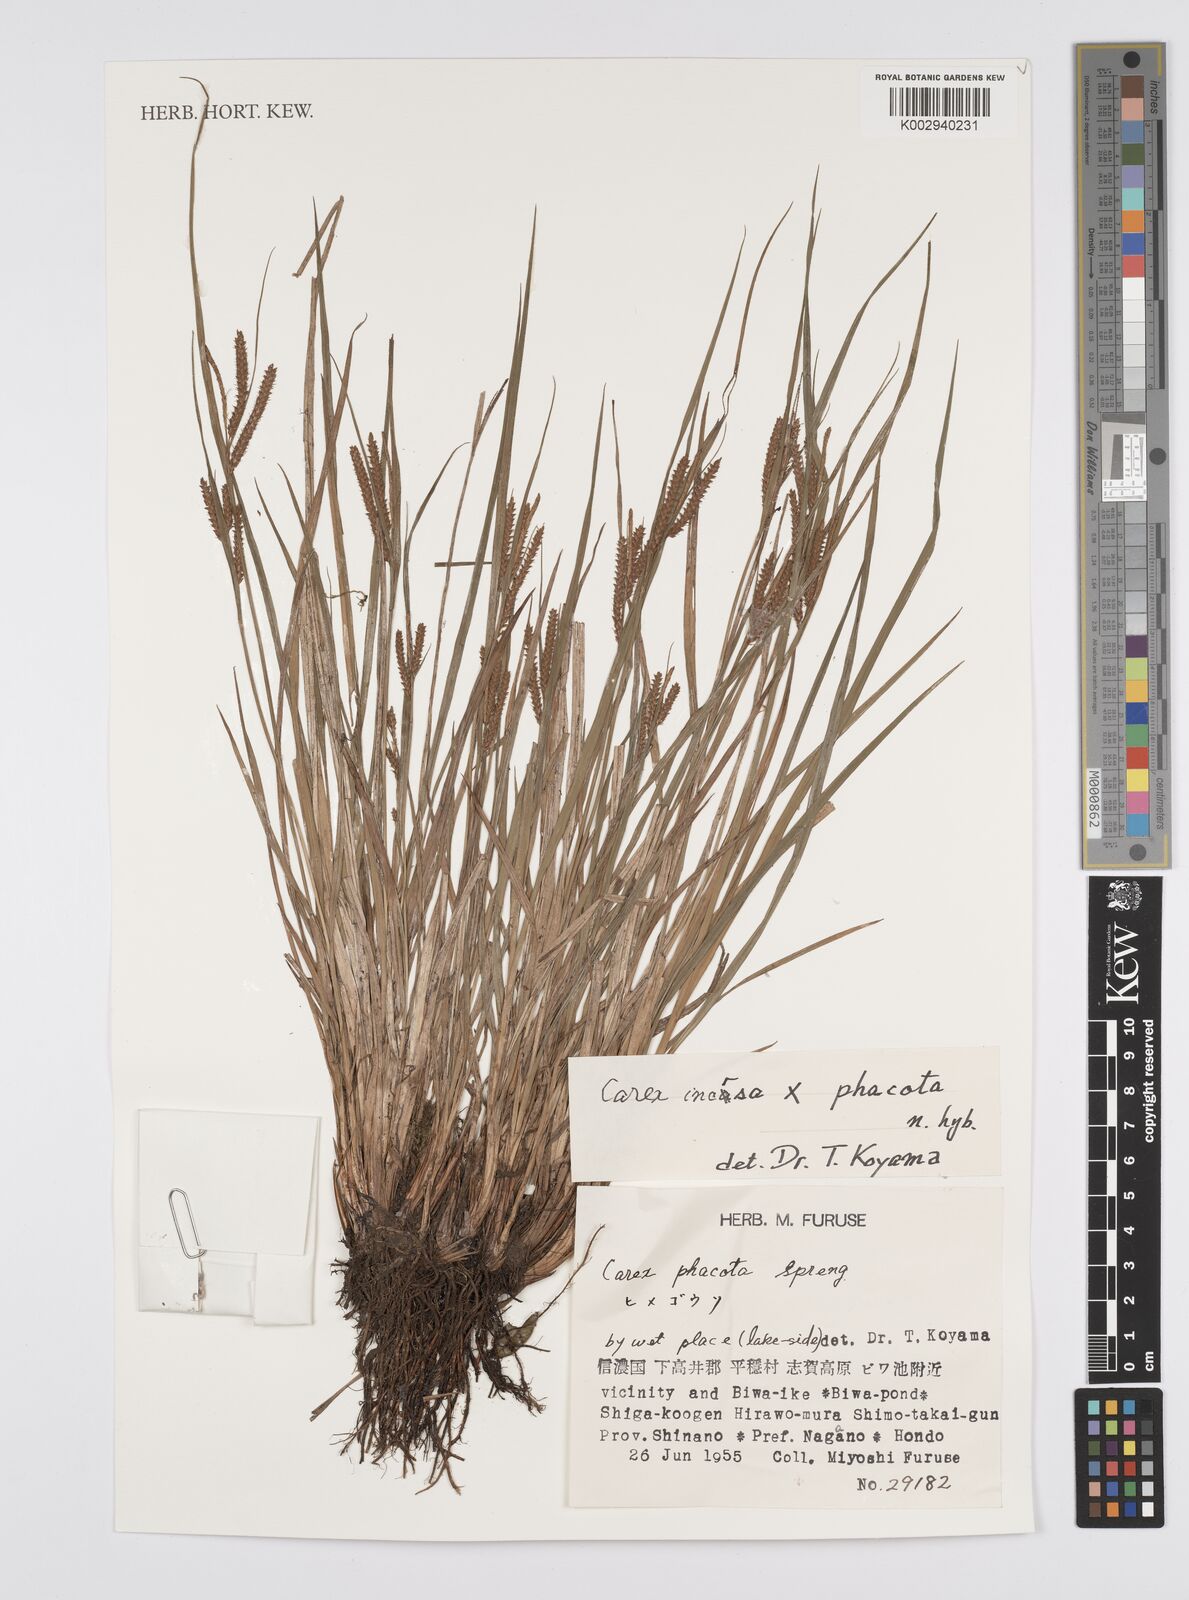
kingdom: Plantae
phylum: Tracheophyta
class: Liliopsida
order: Poales
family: Cyperaceae
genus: Carex
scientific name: Carex phacota
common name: Lakeshore sedge
